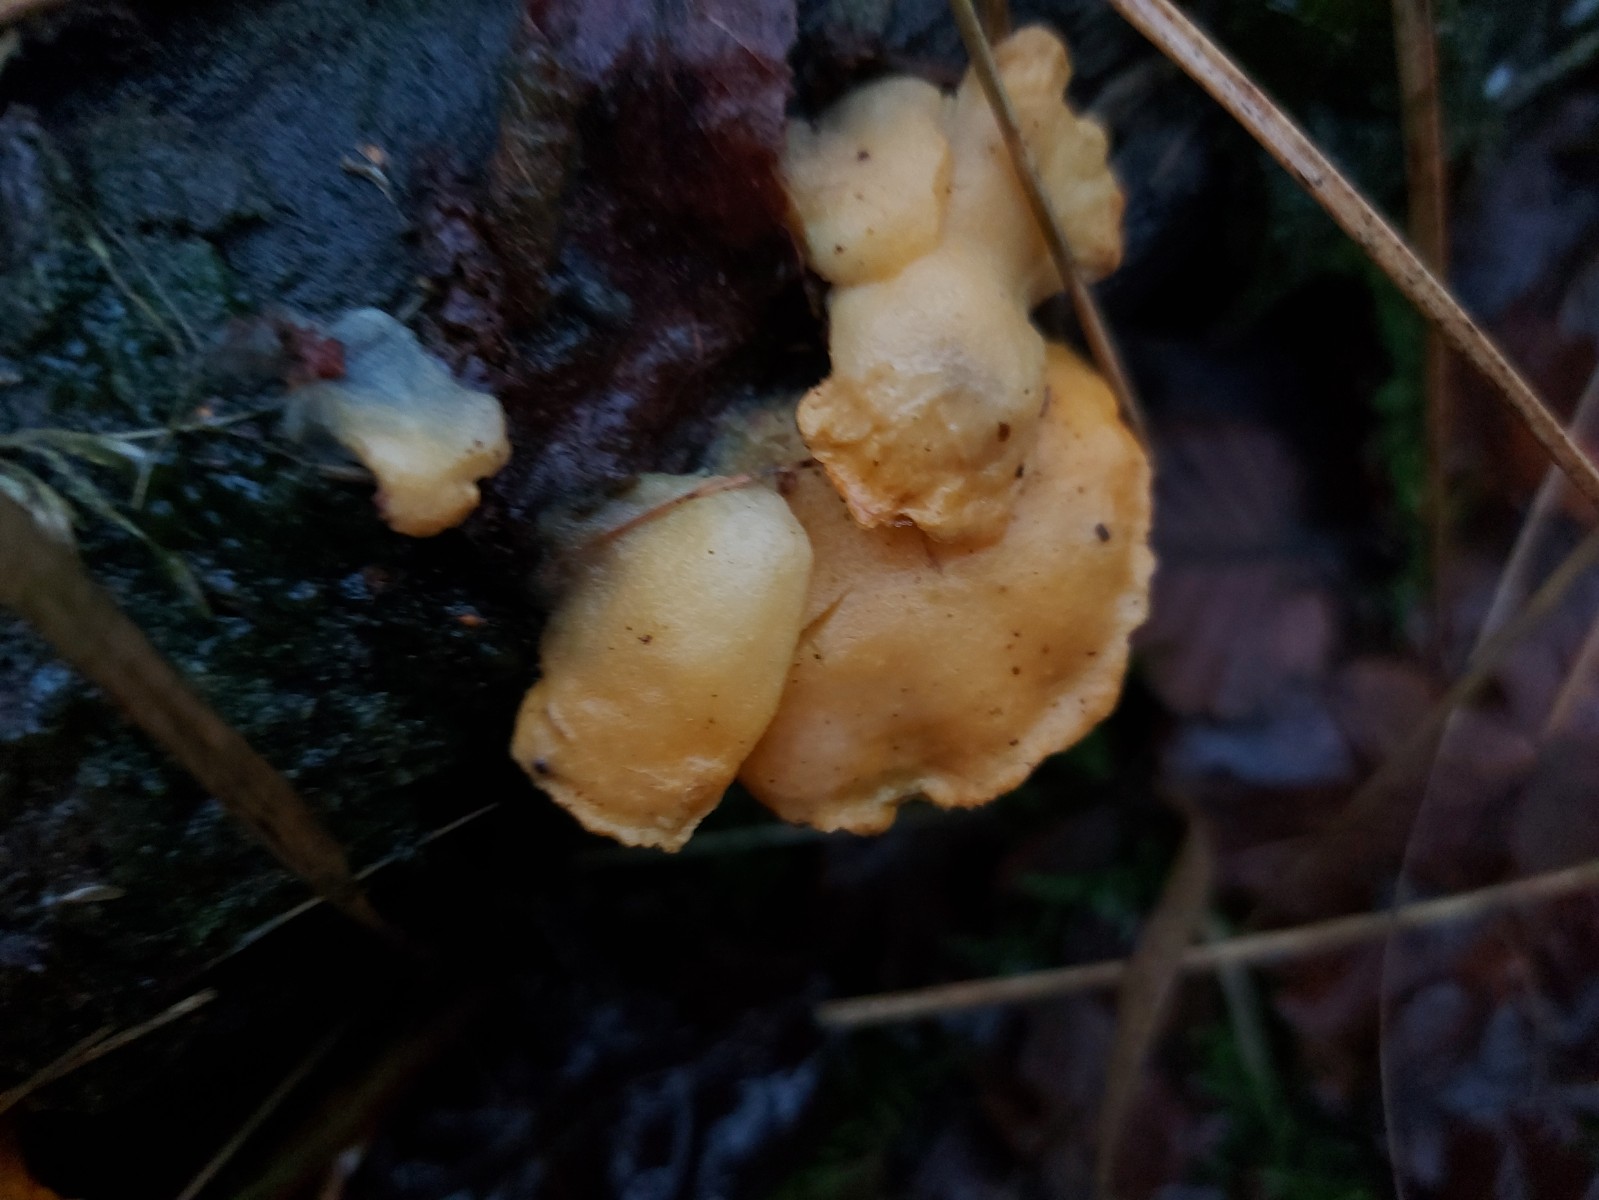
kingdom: Fungi
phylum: Ascomycota
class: Sordariomycetes
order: Hypocreales
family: Hypocreaceae
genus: Protocrea
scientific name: Protocrea pallida
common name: bleg kødkerne
